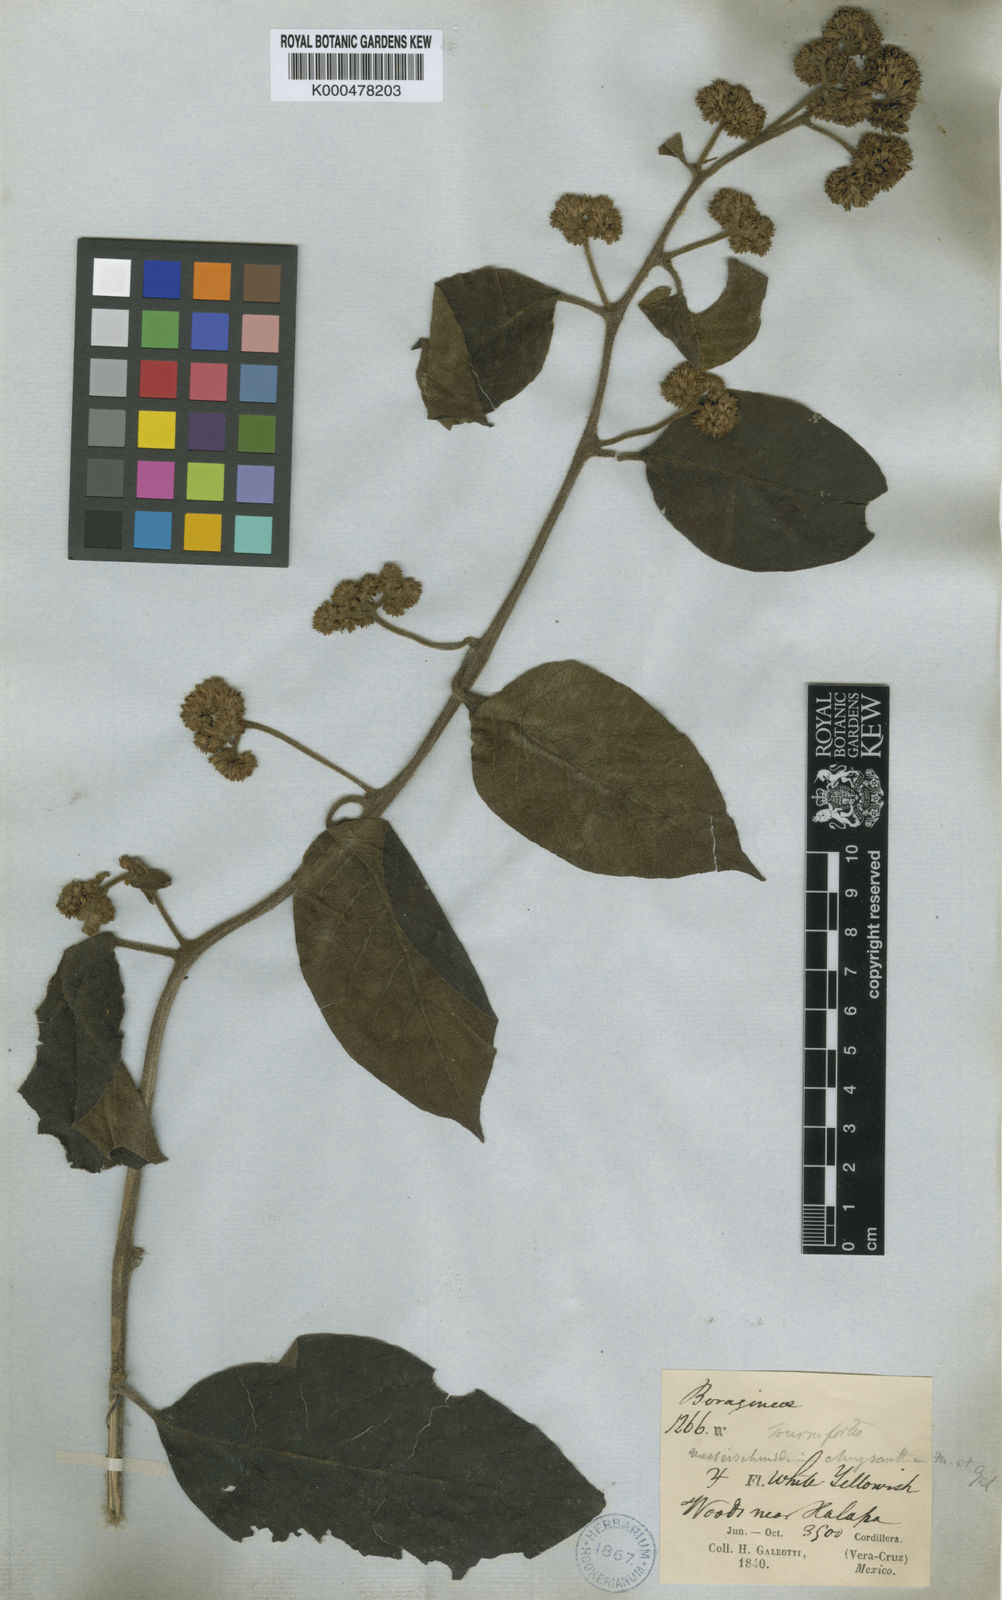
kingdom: Plantae
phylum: Tracheophyta
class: Magnoliopsida
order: Boraginales
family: Heliotropiaceae
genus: Heliotropium
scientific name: Heliotropium verdcourtii
